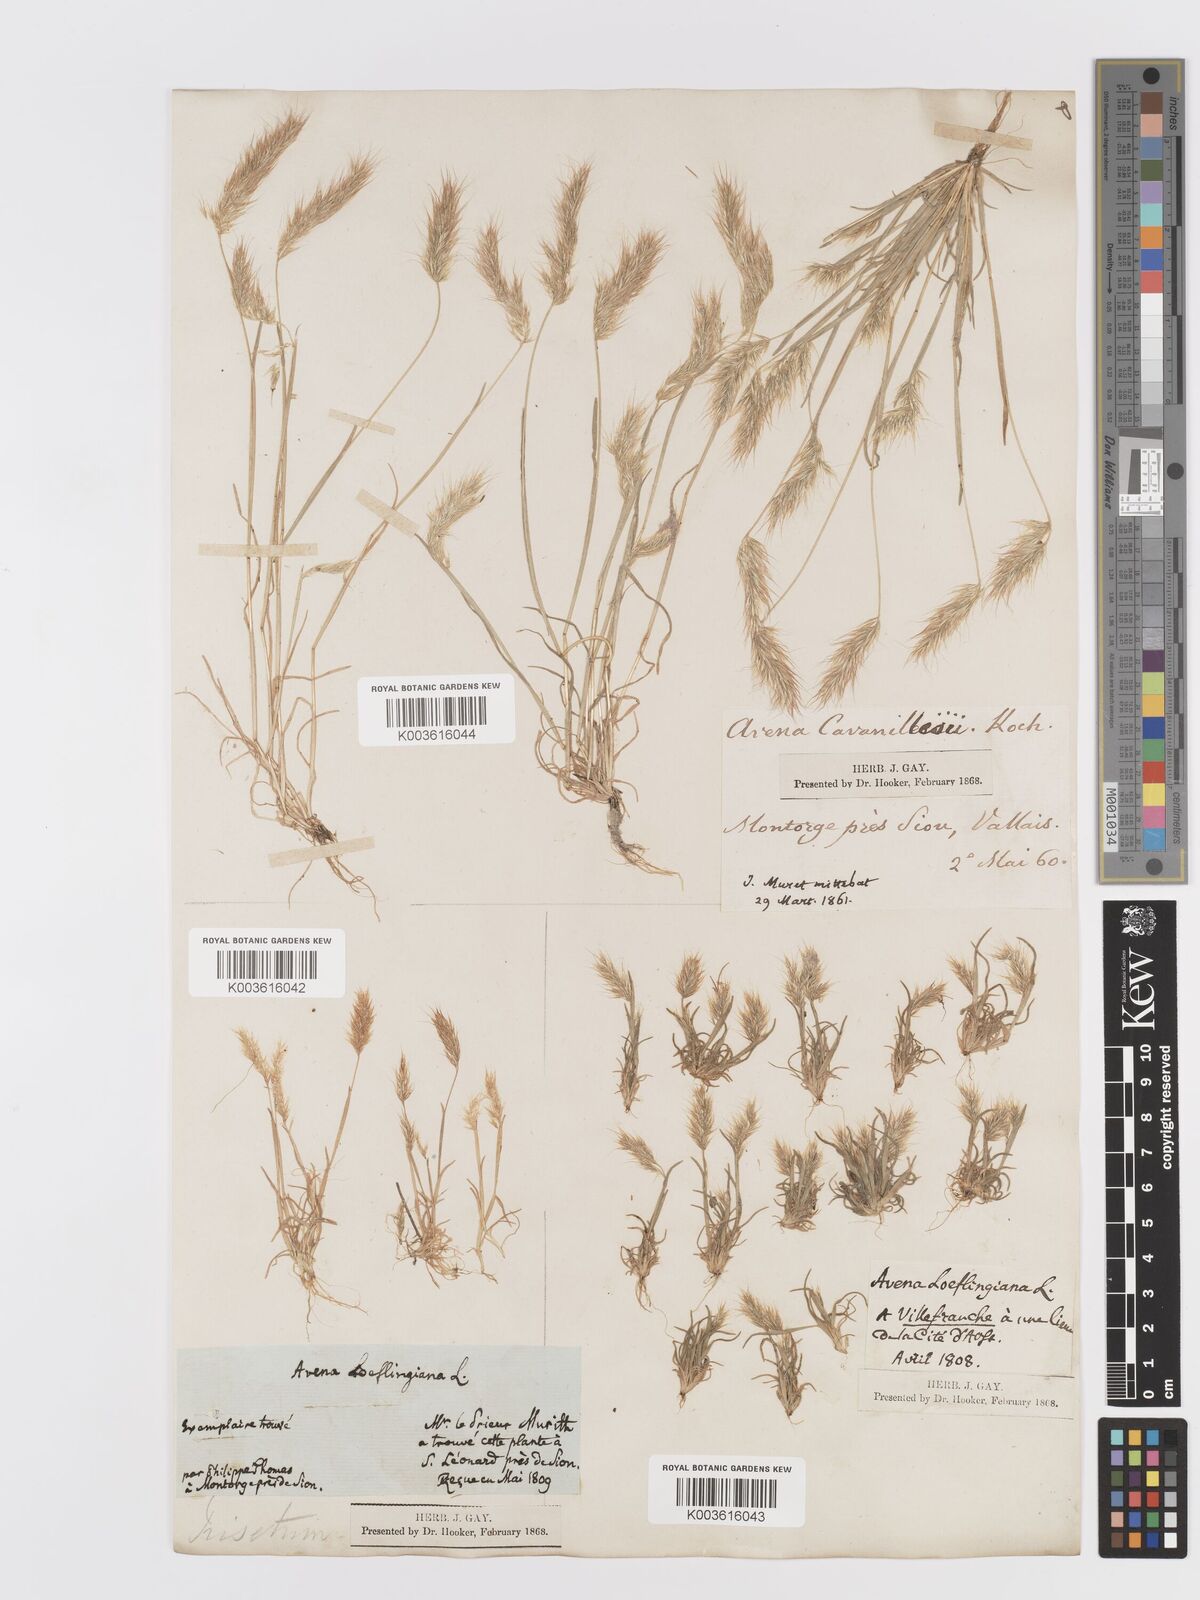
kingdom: Plantae
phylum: Tracheophyta
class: Liliopsida
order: Poales
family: Poaceae
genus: Trisetaria
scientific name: Trisetaria loeflingiana
